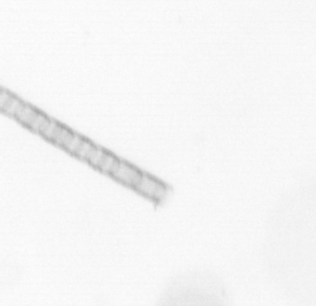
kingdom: Chromista
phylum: Ochrophyta
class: Bacillariophyceae
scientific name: Bacillariophyceae
